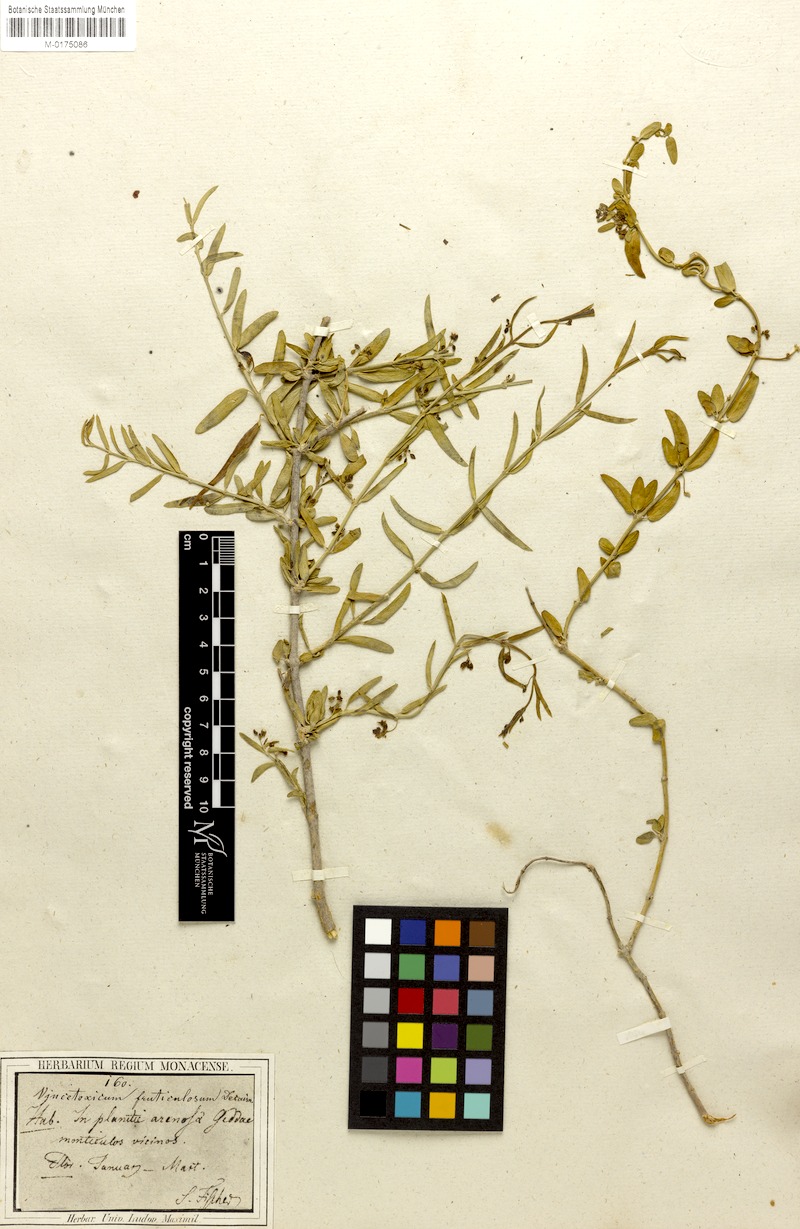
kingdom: Plantae
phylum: Tracheophyta
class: Magnoliopsida
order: Gentianales
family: Apocynaceae
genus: Vincetoxicum
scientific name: Vincetoxicum fruticulosum
